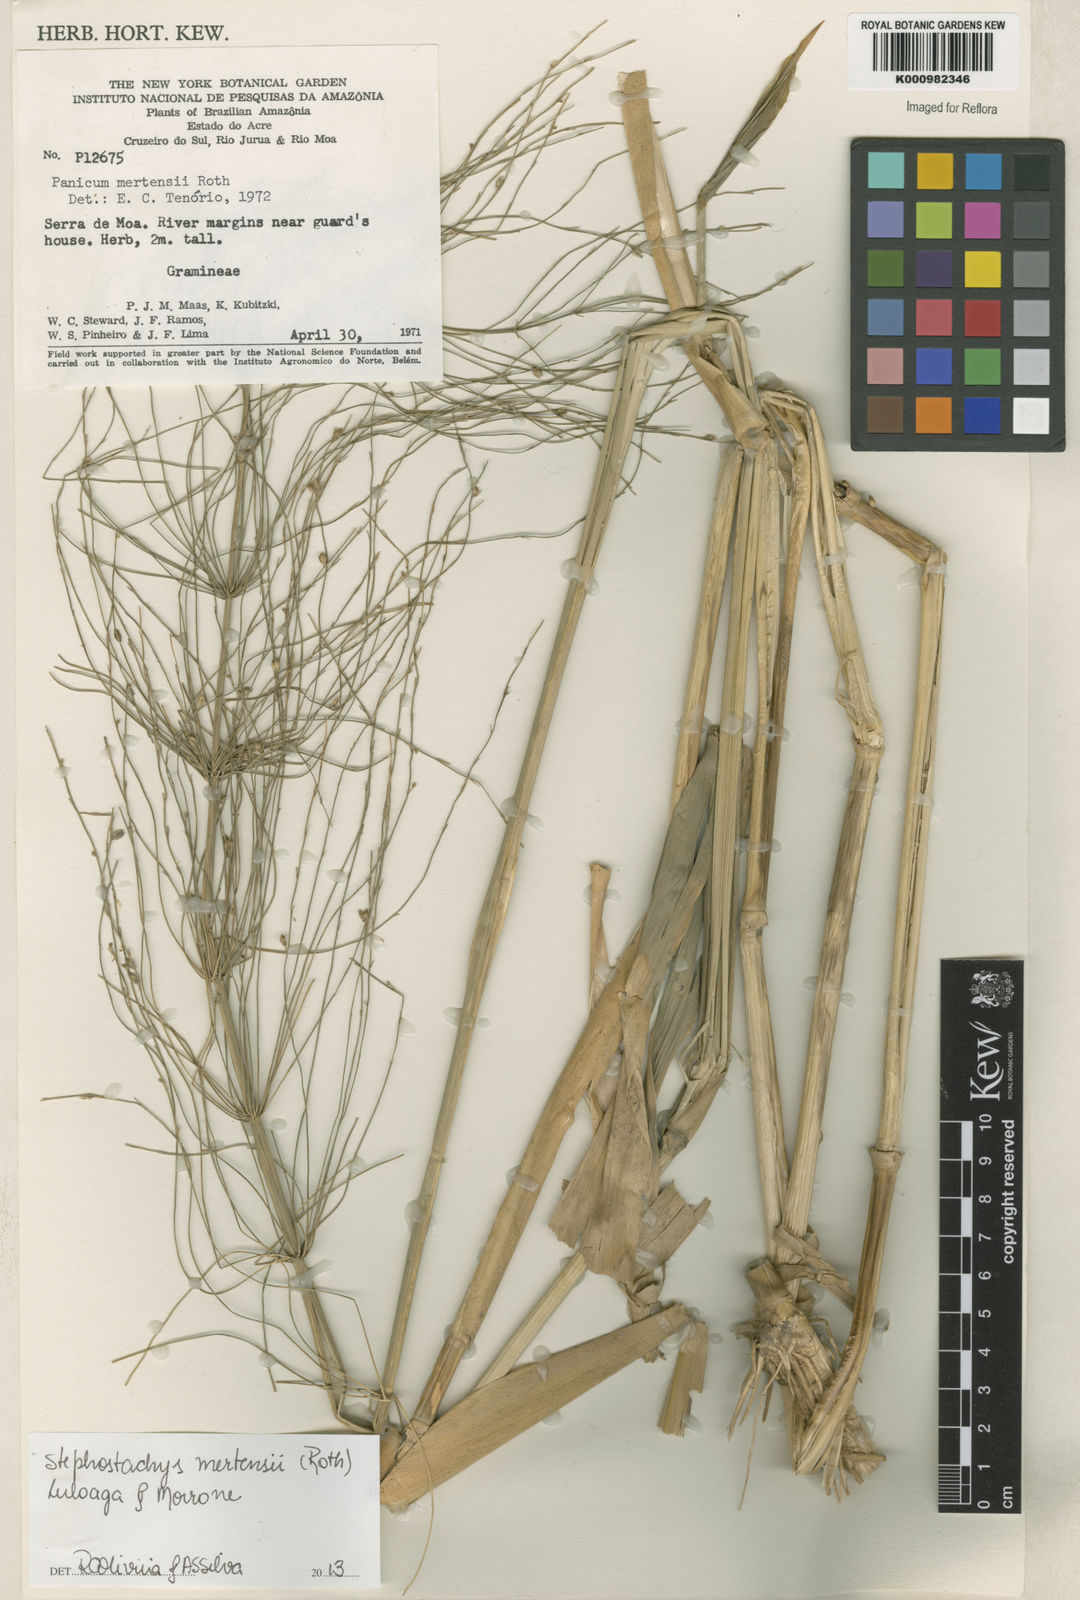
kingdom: Plantae
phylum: Tracheophyta
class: Liliopsida
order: Poales
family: Poaceae
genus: Stephostachys
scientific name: Stephostachys mertensii
